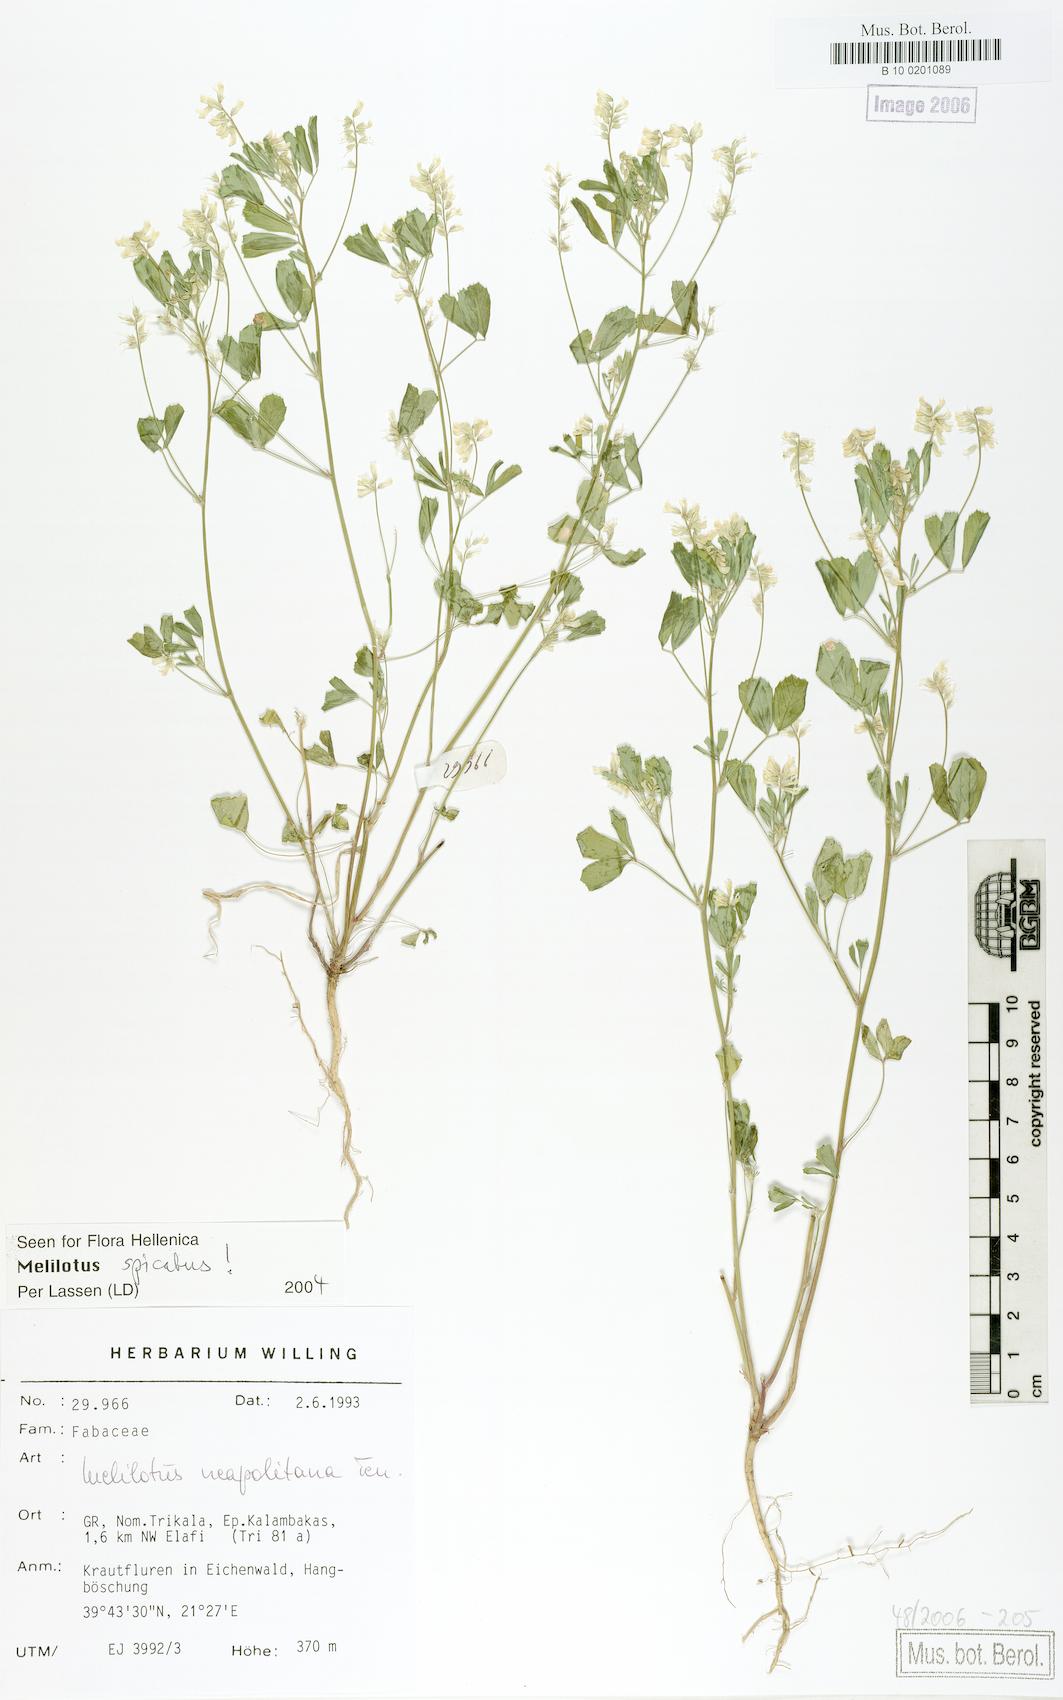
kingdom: Plantae
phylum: Tracheophyta
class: Magnoliopsida
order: Fabales
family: Fabaceae
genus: Melilotus
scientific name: Melilotus neapolitanus
